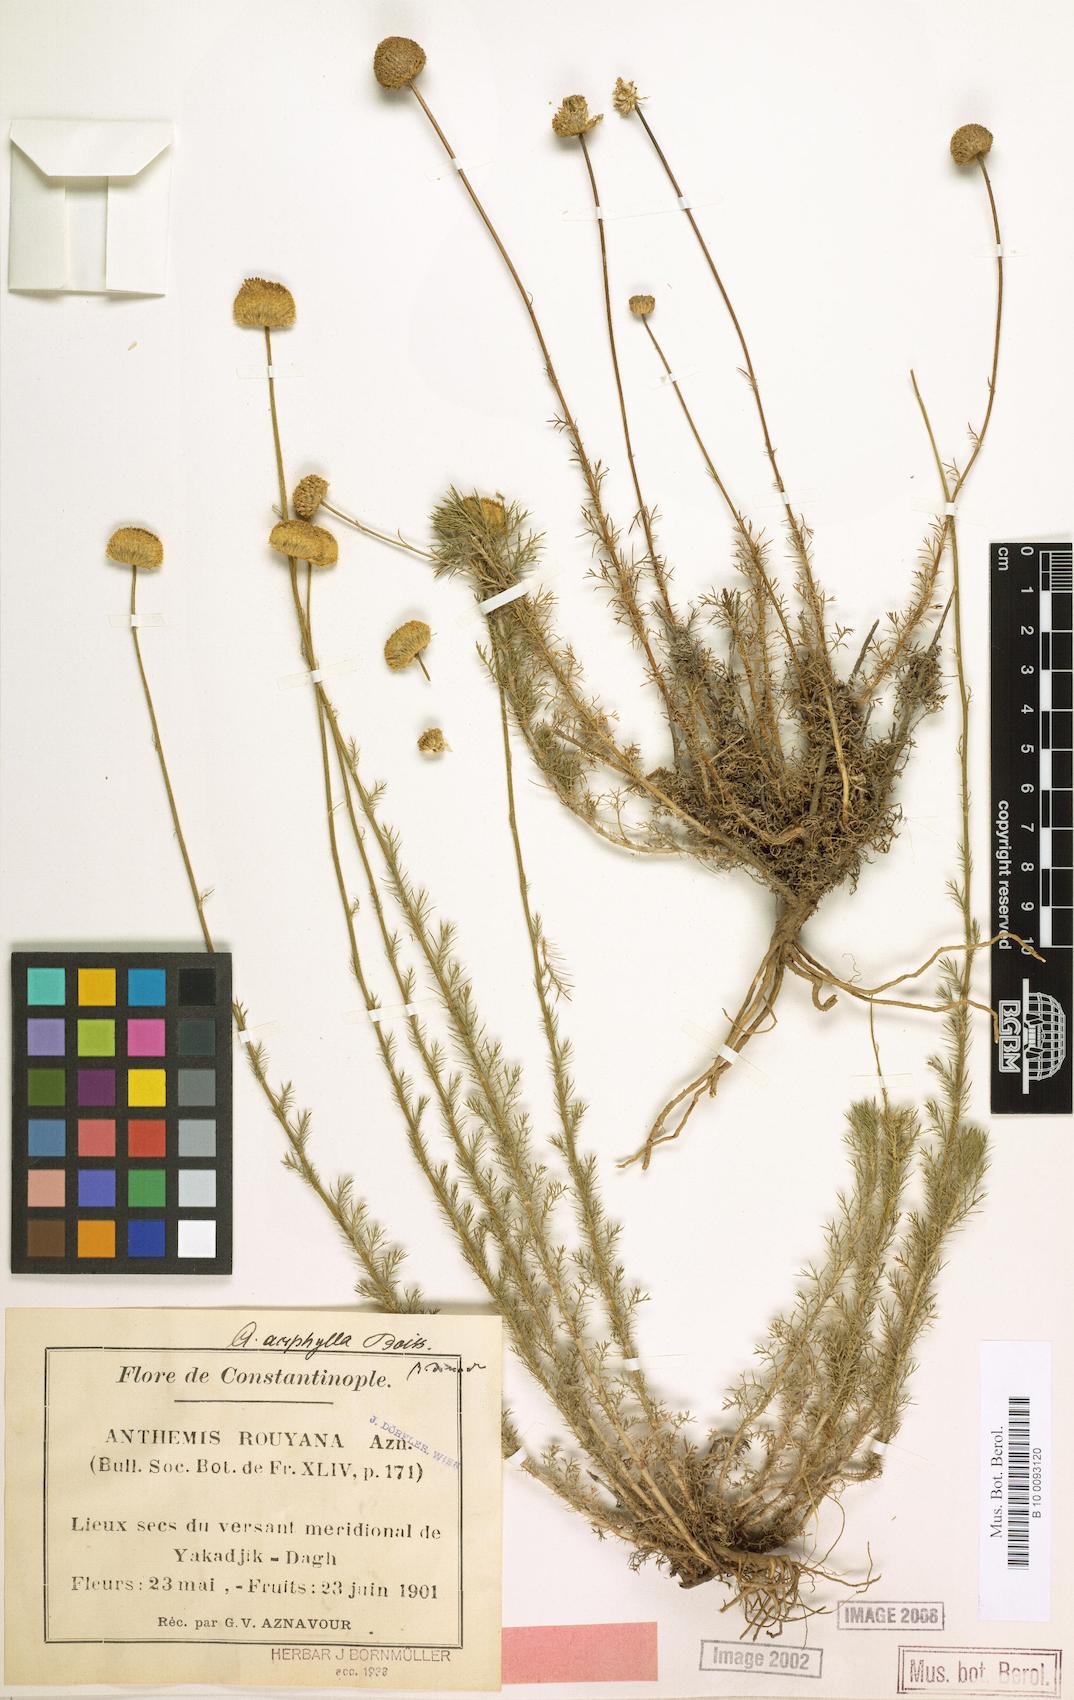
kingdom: Plantae
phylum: Tracheophyta
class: Magnoliopsida
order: Asterales
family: Asteraceae
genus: Anthemis
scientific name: Anthemis aciphylla
